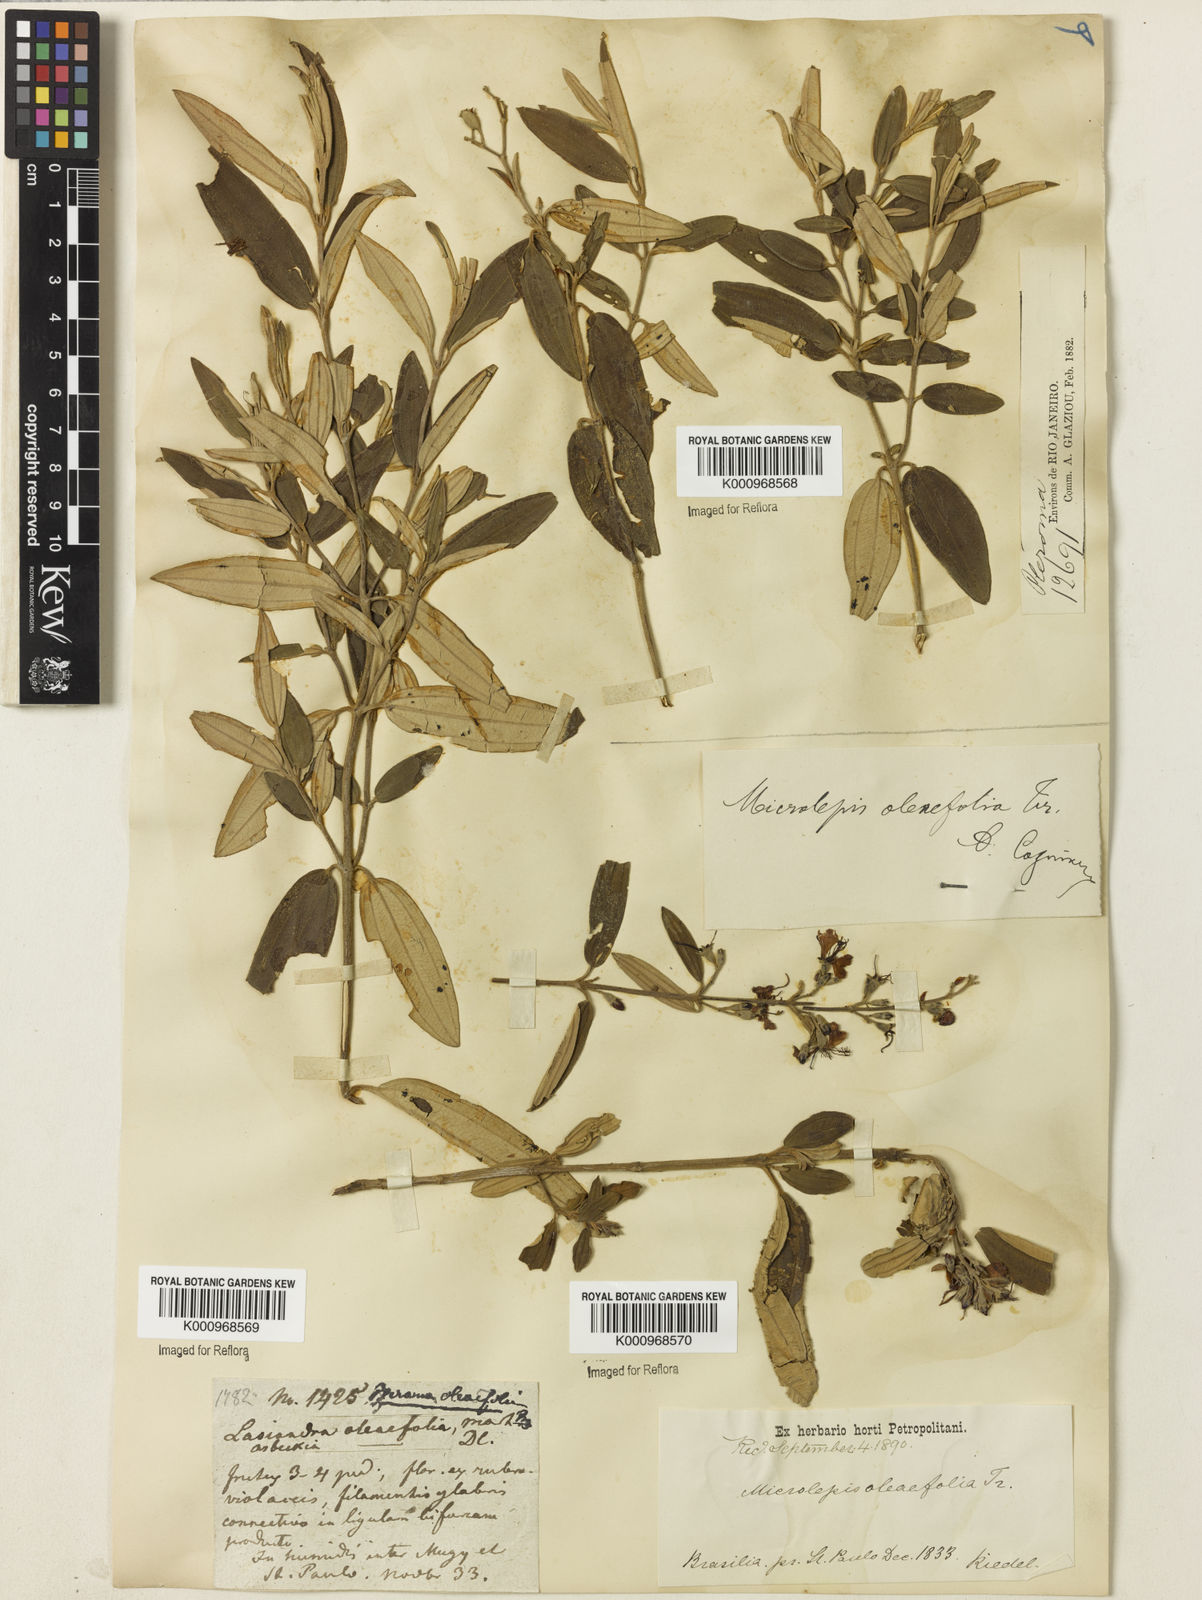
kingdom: Plantae
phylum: Tracheophyta
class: Magnoliopsida
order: Myrtales
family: Melastomataceae
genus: Pleroma
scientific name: Pleroma oleifolia
